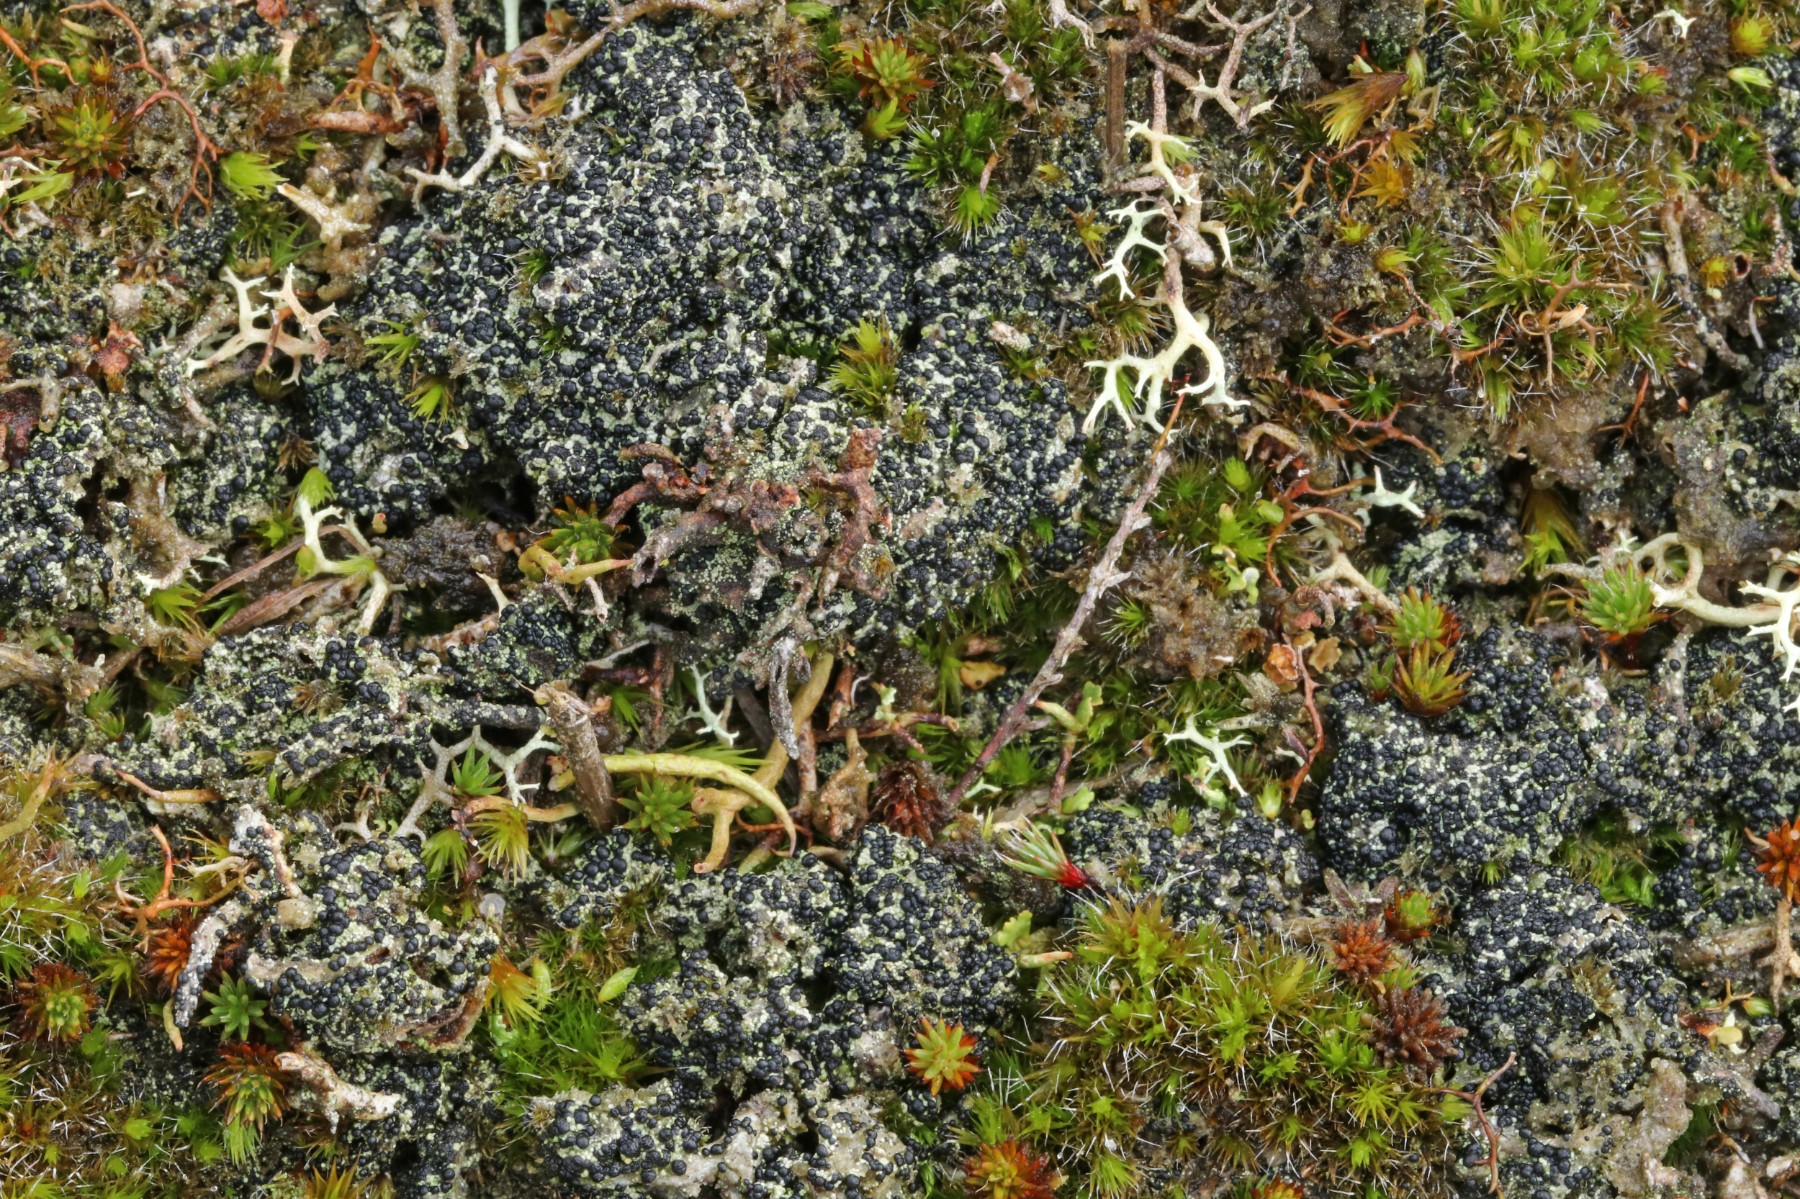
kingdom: Fungi
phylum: Ascomycota
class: Lecanoromycetes
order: Lecanorales
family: Byssolomataceae
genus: Micarea
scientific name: Micarea lignaria
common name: tørve-knaplav
